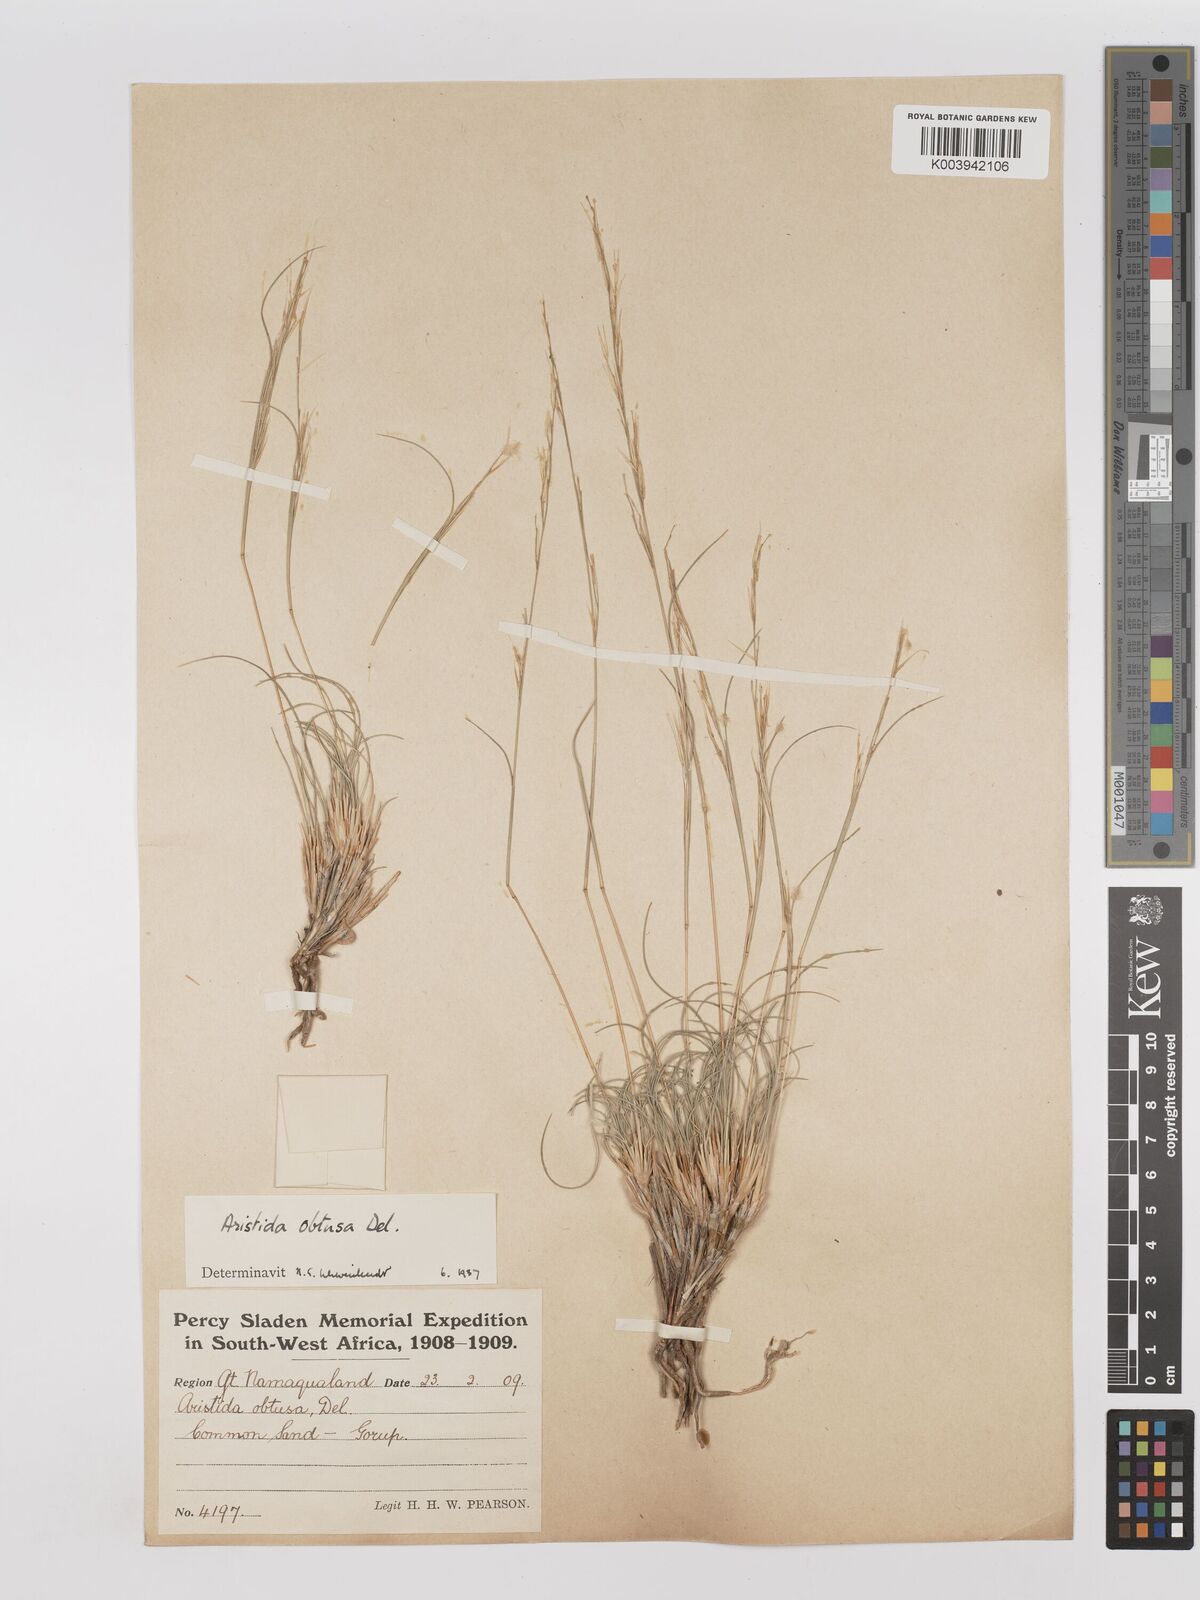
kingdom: Plantae
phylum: Tracheophyta
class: Liliopsida
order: Poales
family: Poaceae
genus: Stipagrostis
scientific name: Stipagrostis obtusa
